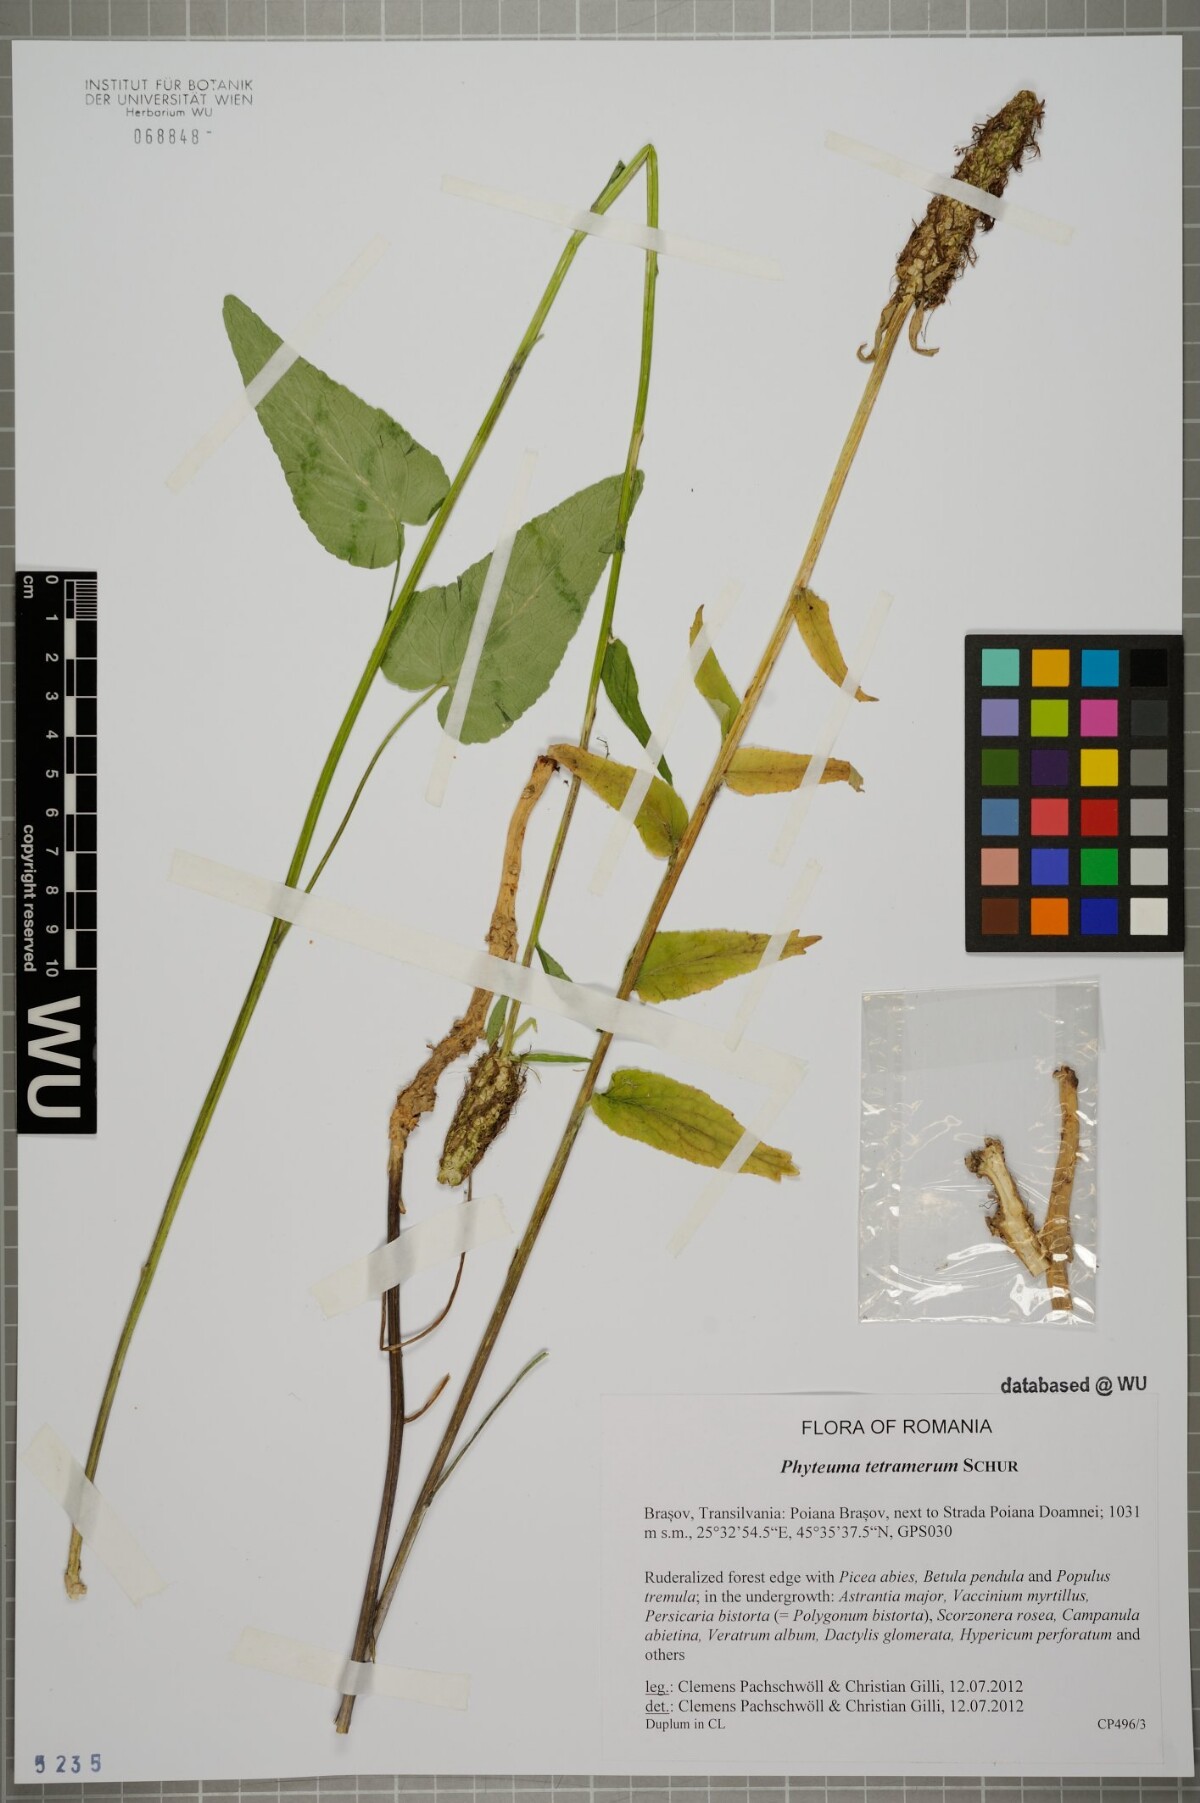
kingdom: Plantae
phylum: Tracheophyta
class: Magnoliopsida
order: Asterales
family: Campanulaceae
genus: Phyteuma
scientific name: Phyteuma tetramerum
